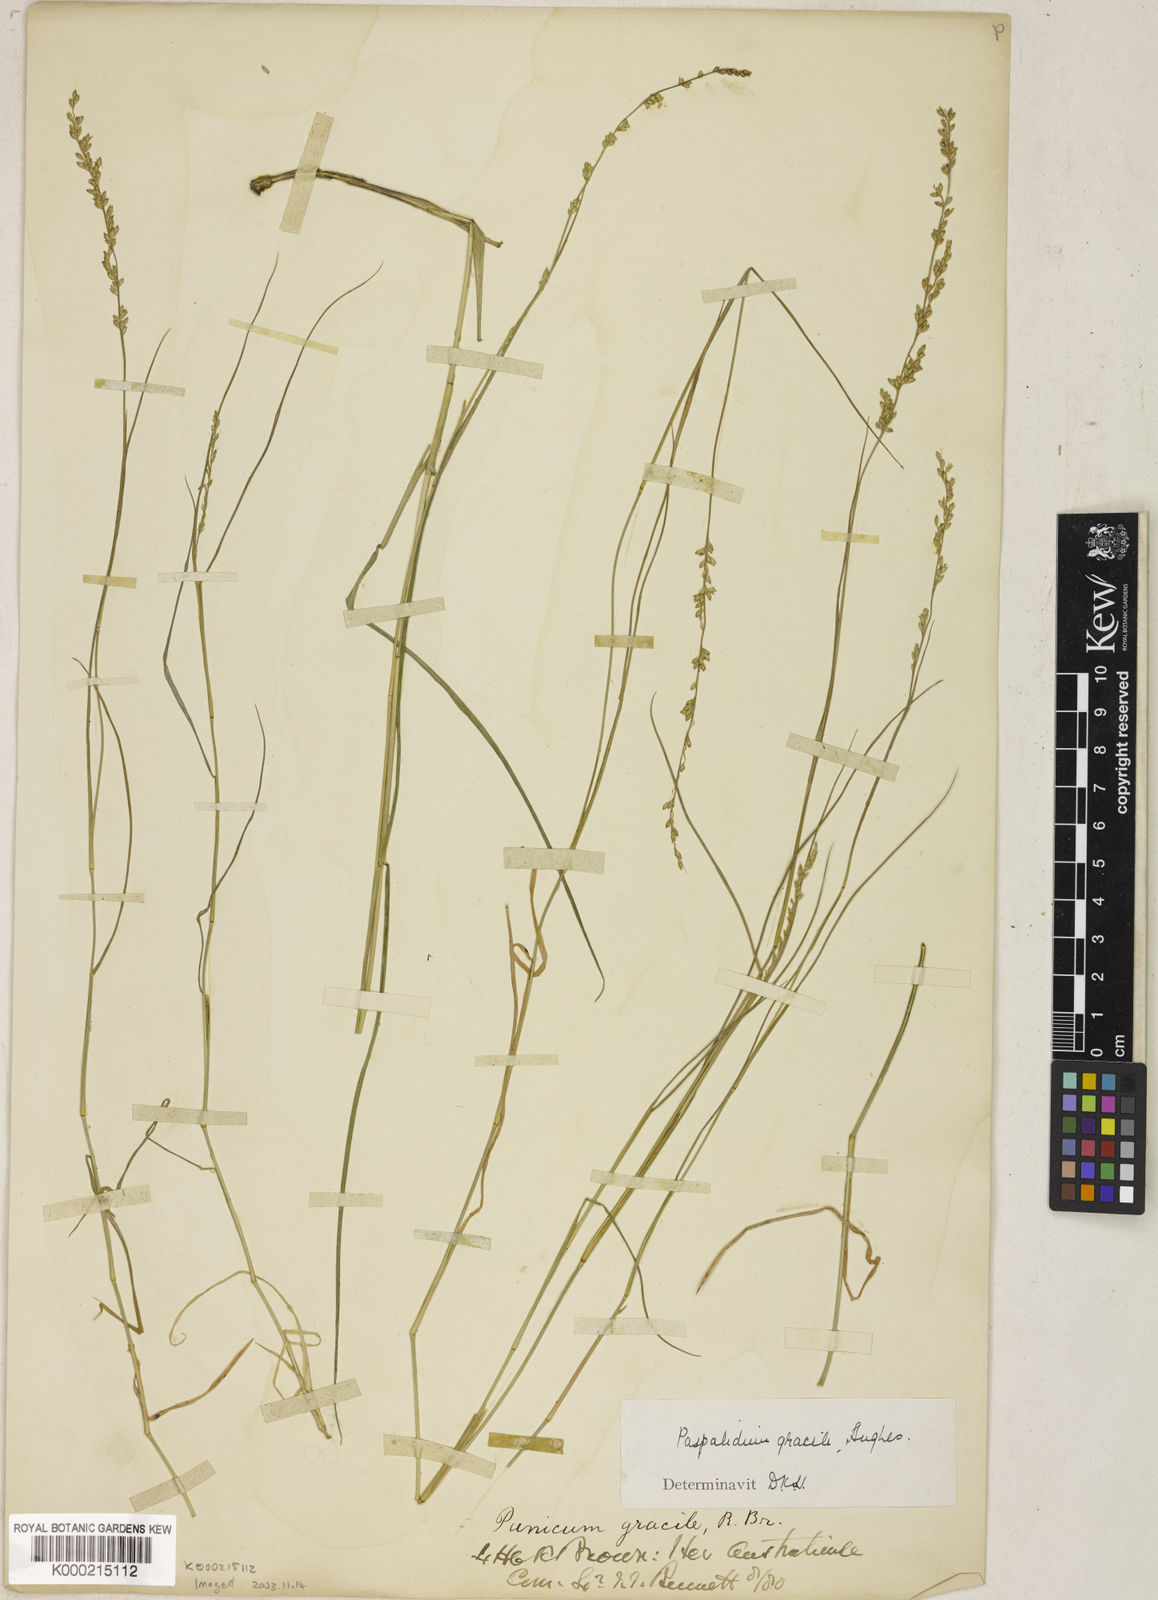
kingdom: Plantae
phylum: Tracheophyta
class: Liliopsida
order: Poales
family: Poaceae
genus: Setaria
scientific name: Setaria brownii
